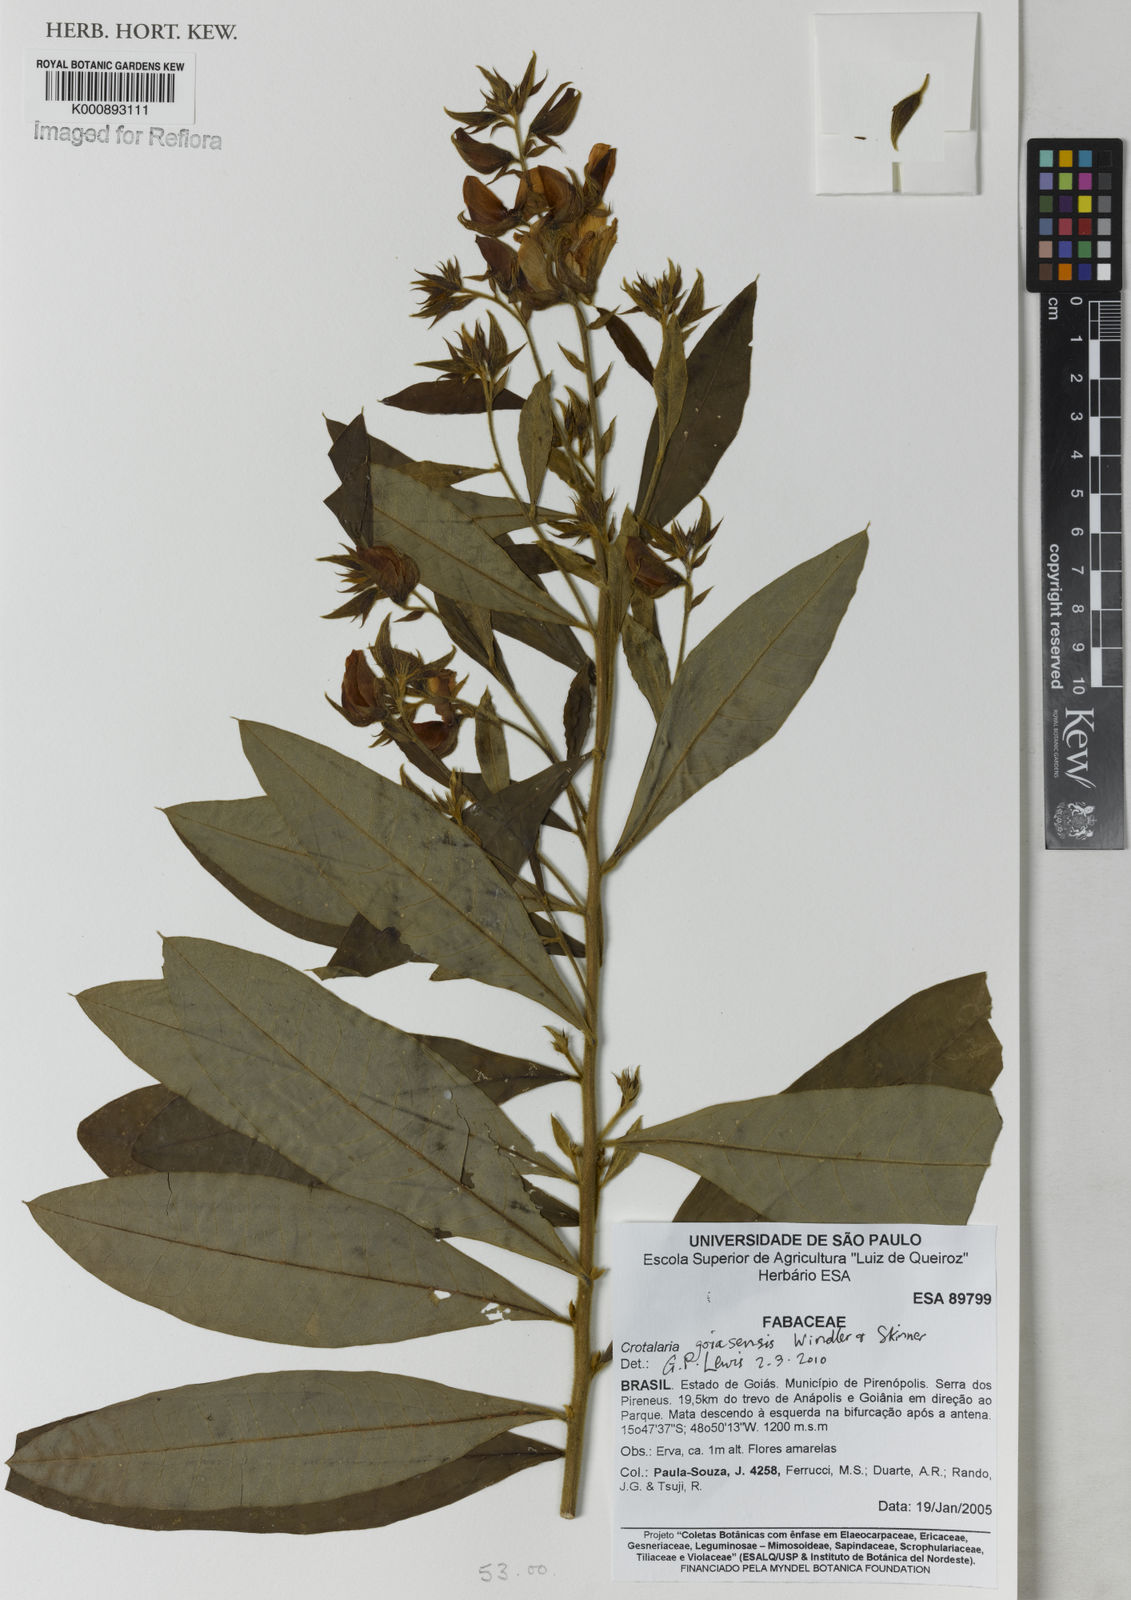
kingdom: Plantae
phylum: Tracheophyta
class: Magnoliopsida
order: Fabales
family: Fabaceae
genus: Crotalaria
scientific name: Crotalaria goiasensis
